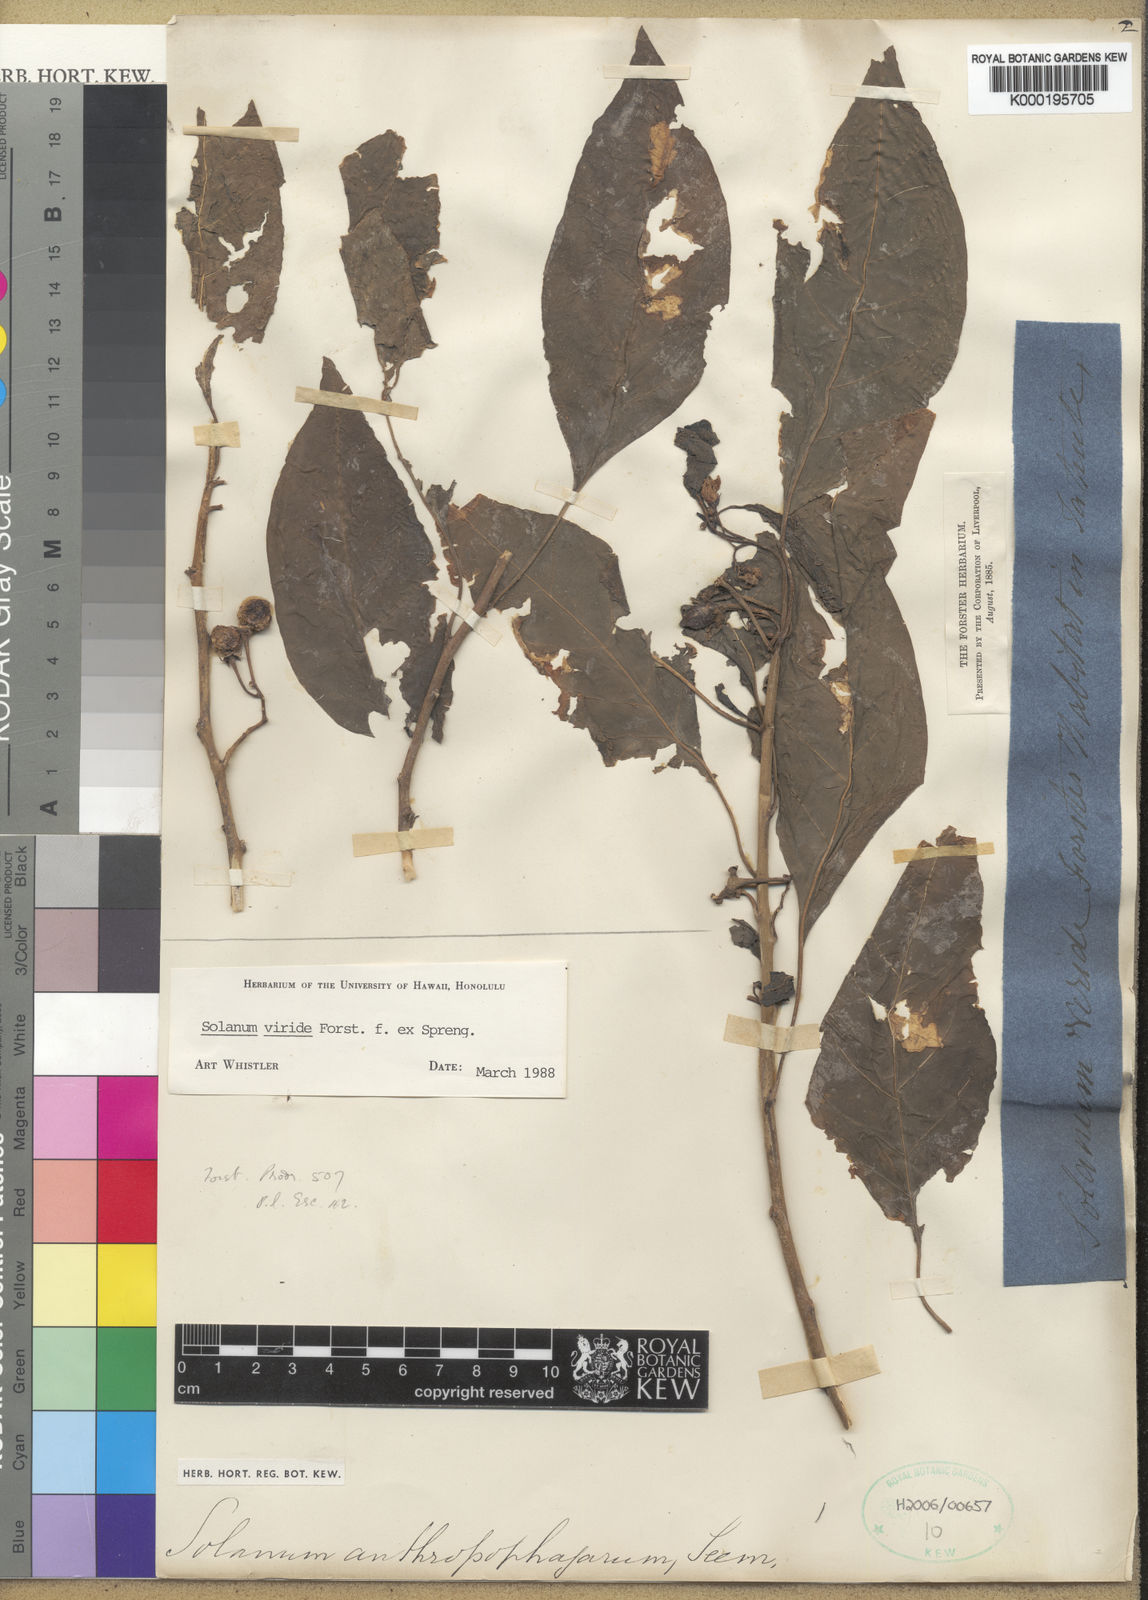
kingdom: Plantae
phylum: Tracheophyta
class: Magnoliopsida
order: Solanales
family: Solanaceae
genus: Solanum
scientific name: Solanum
